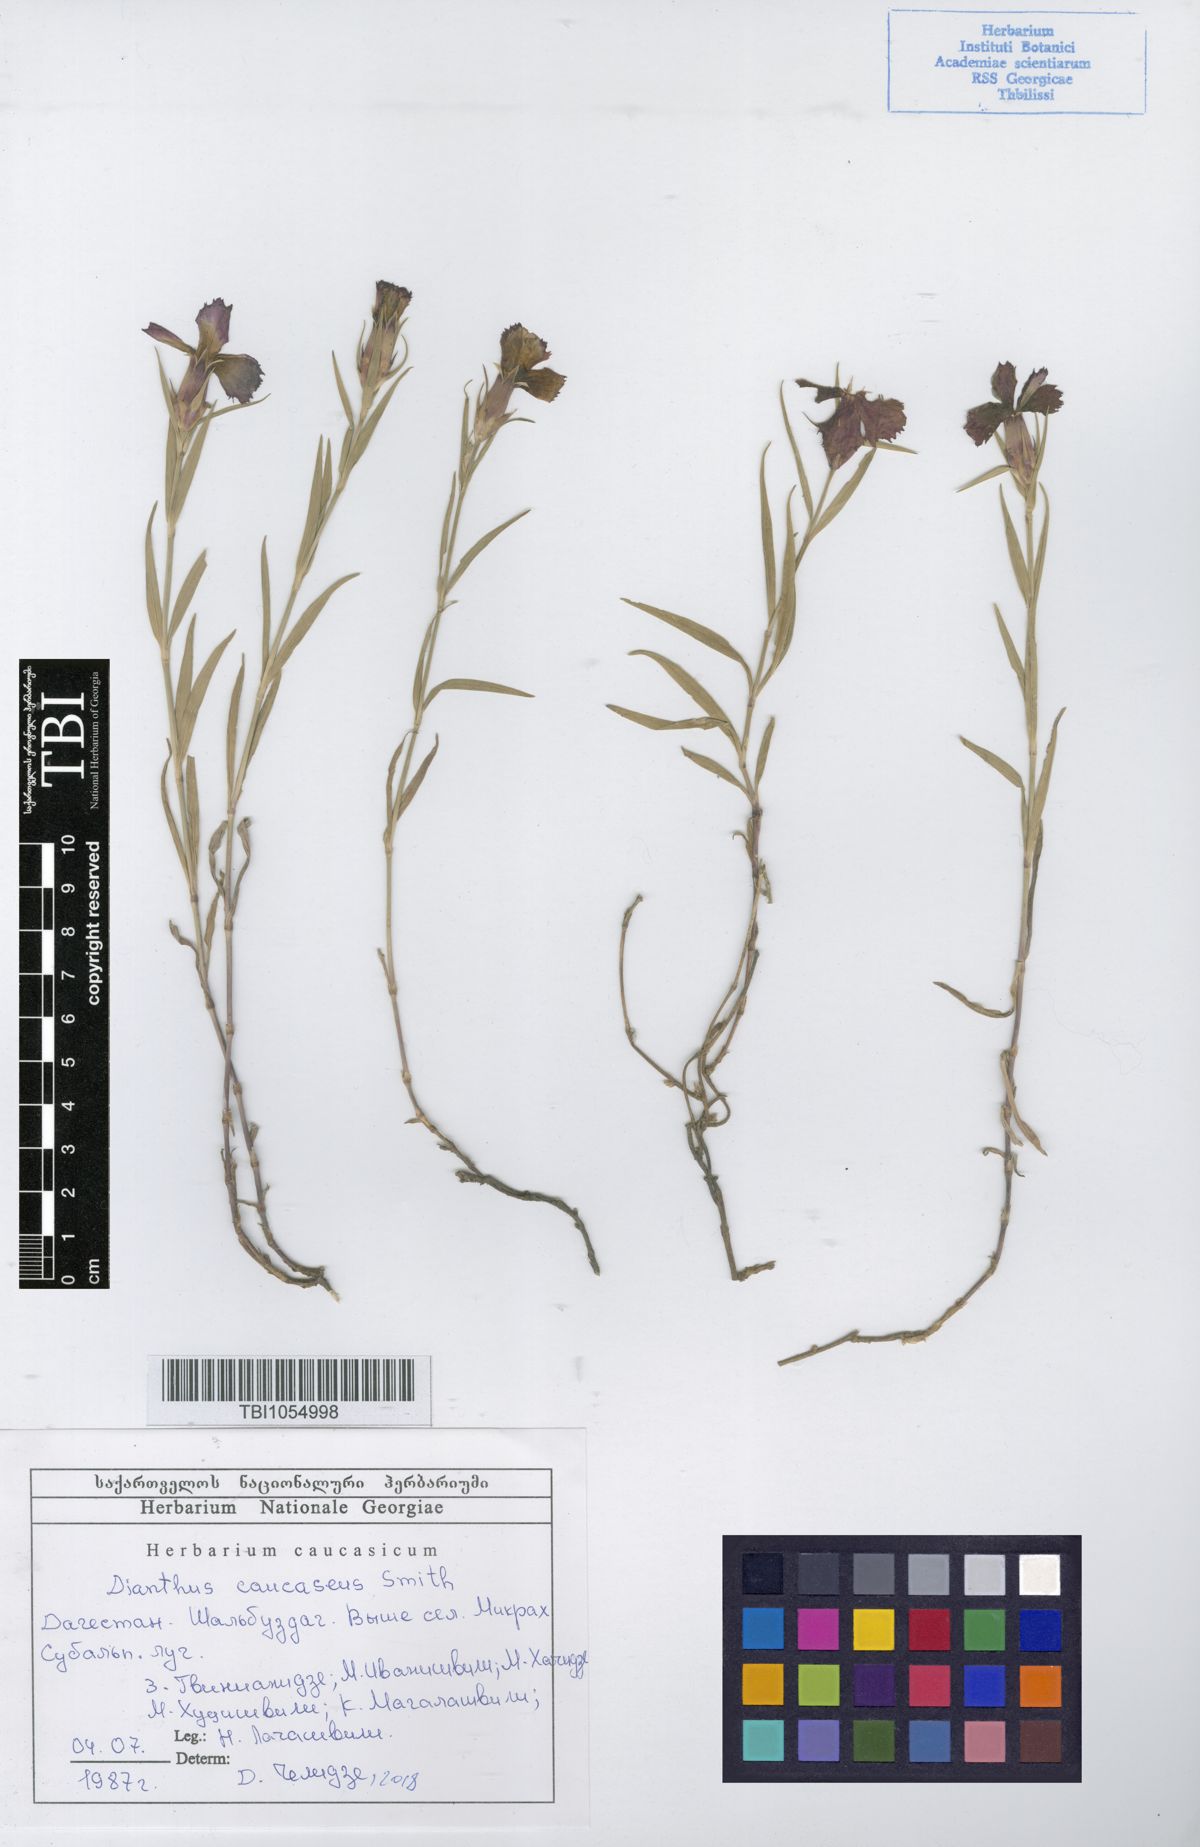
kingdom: Plantae
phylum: Tracheophyta
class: Magnoliopsida
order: Caryophyllales
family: Caryophyllaceae
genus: Dianthus
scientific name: Dianthus caucaseus
